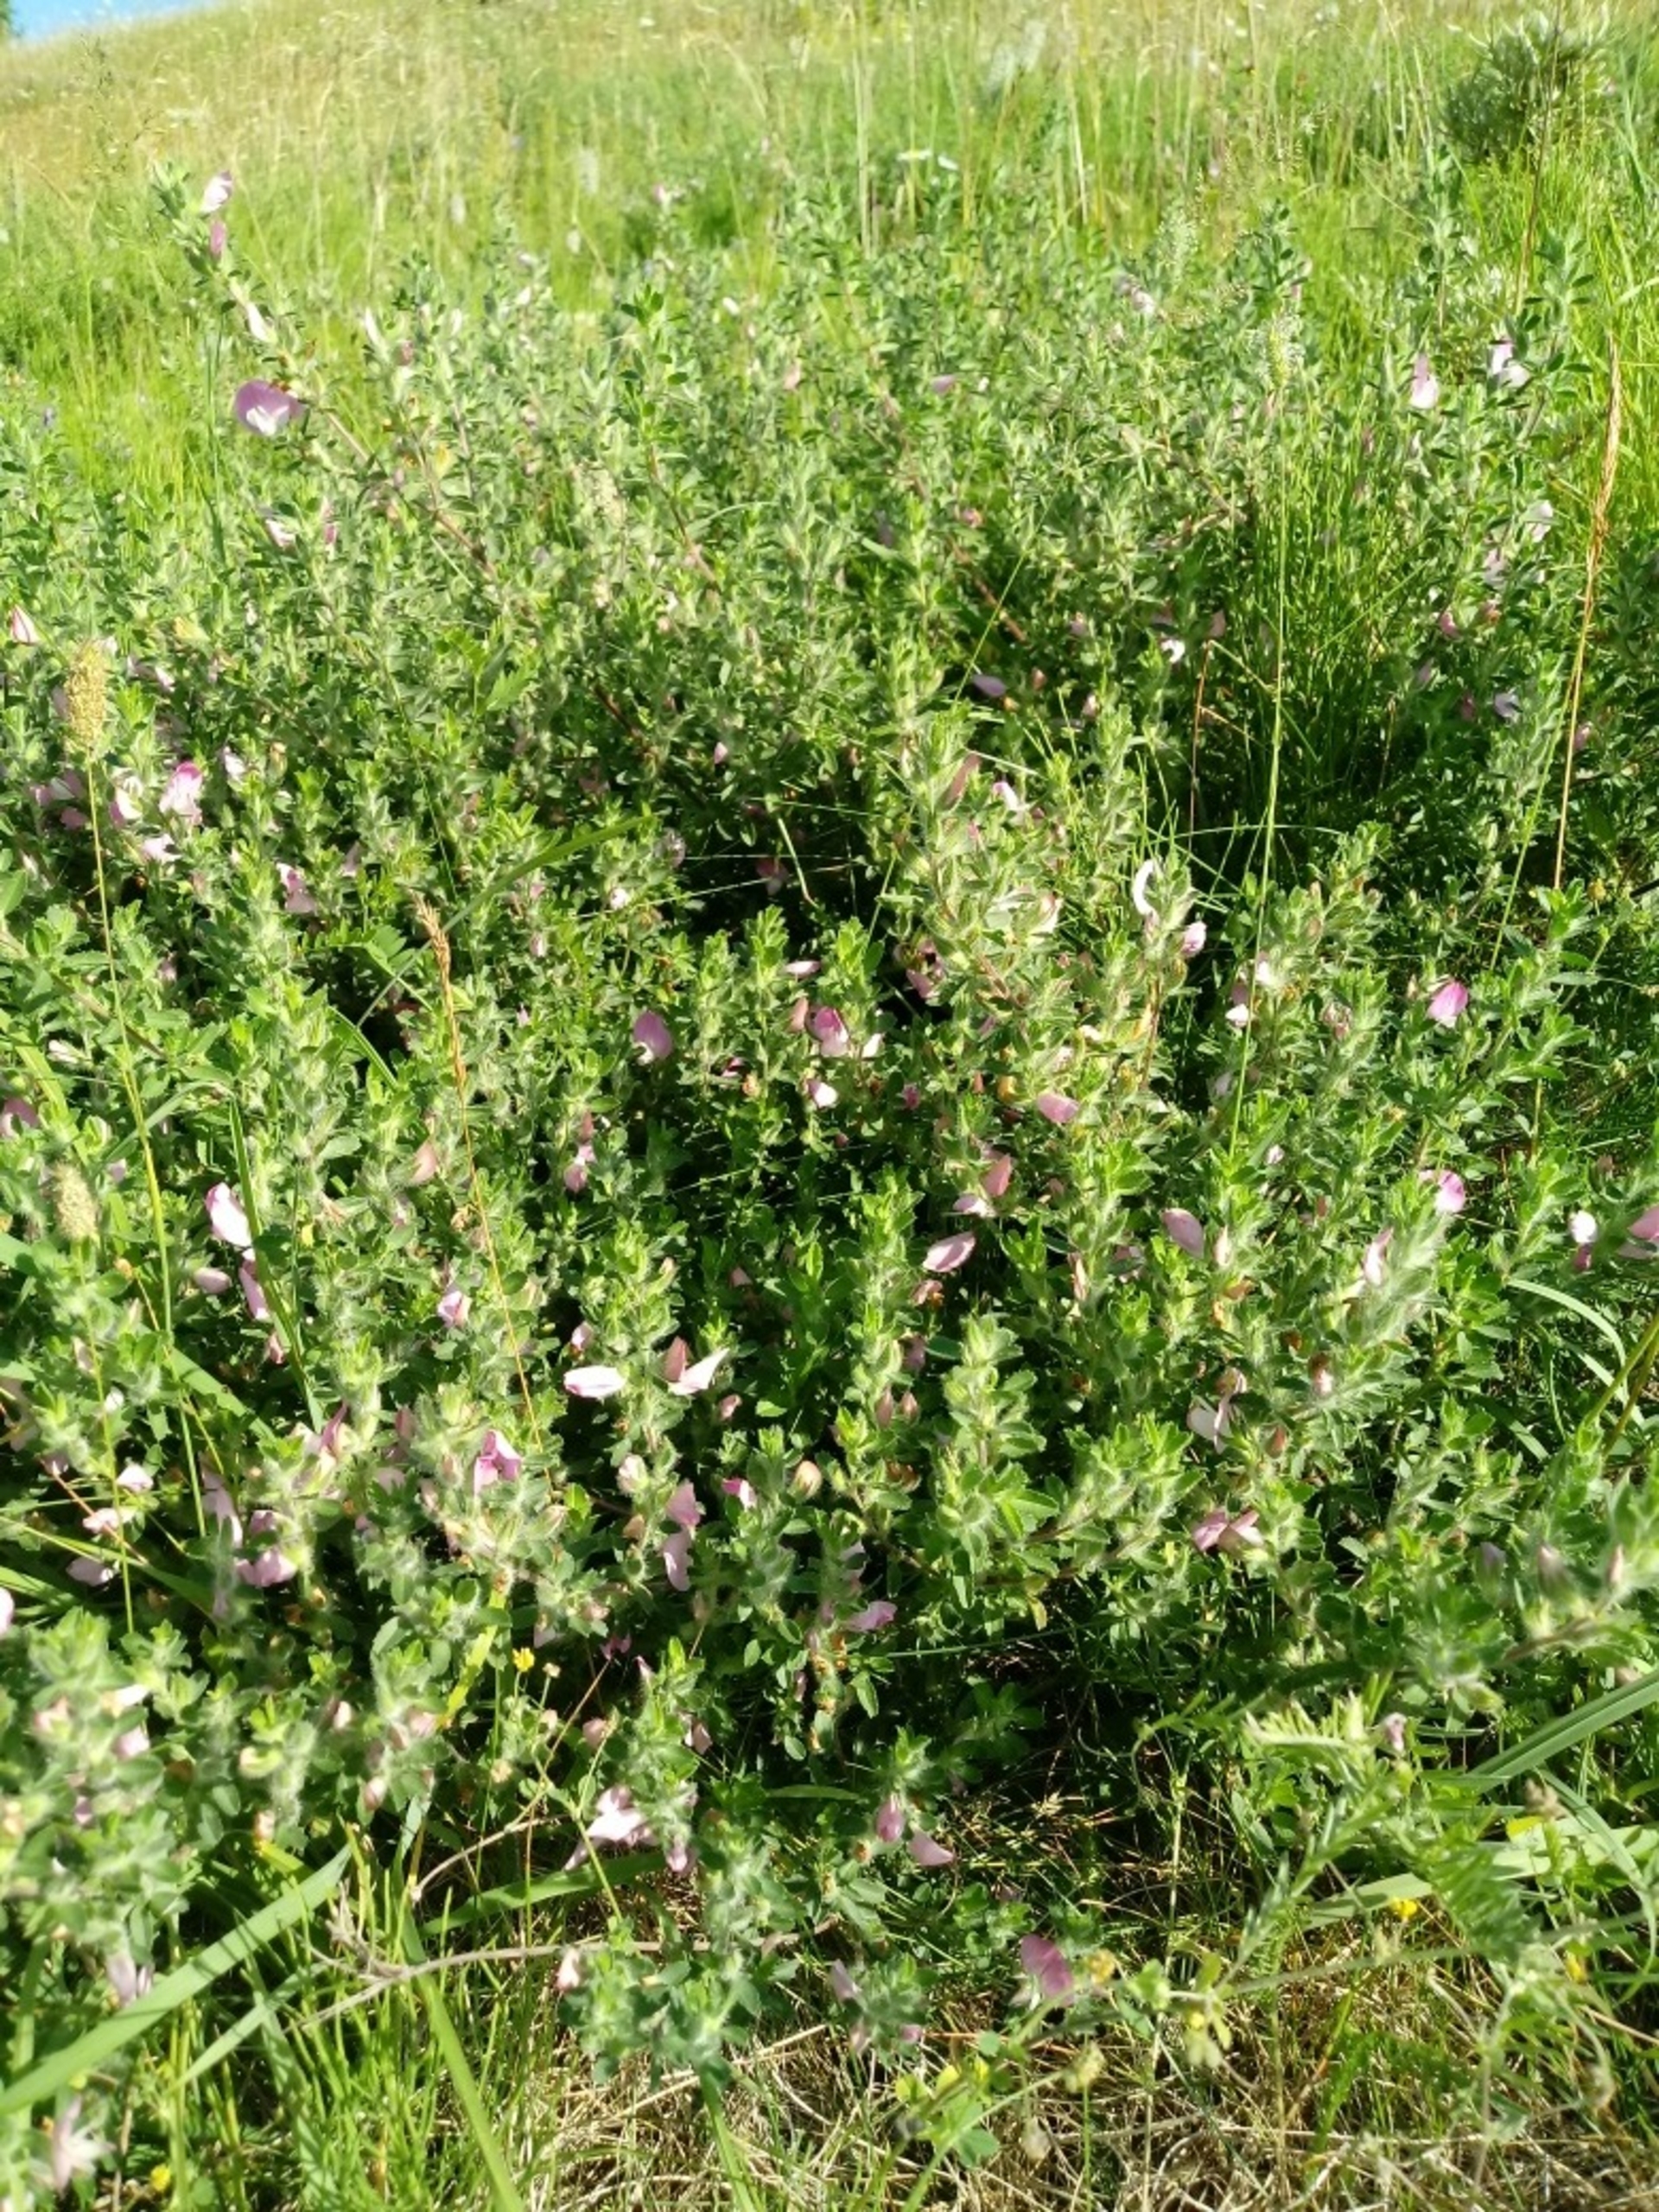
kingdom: Plantae
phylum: Tracheophyta
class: Magnoliopsida
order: Fabales
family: Fabaceae
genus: Ononis
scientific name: Ononis spinosa
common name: Krageklo
